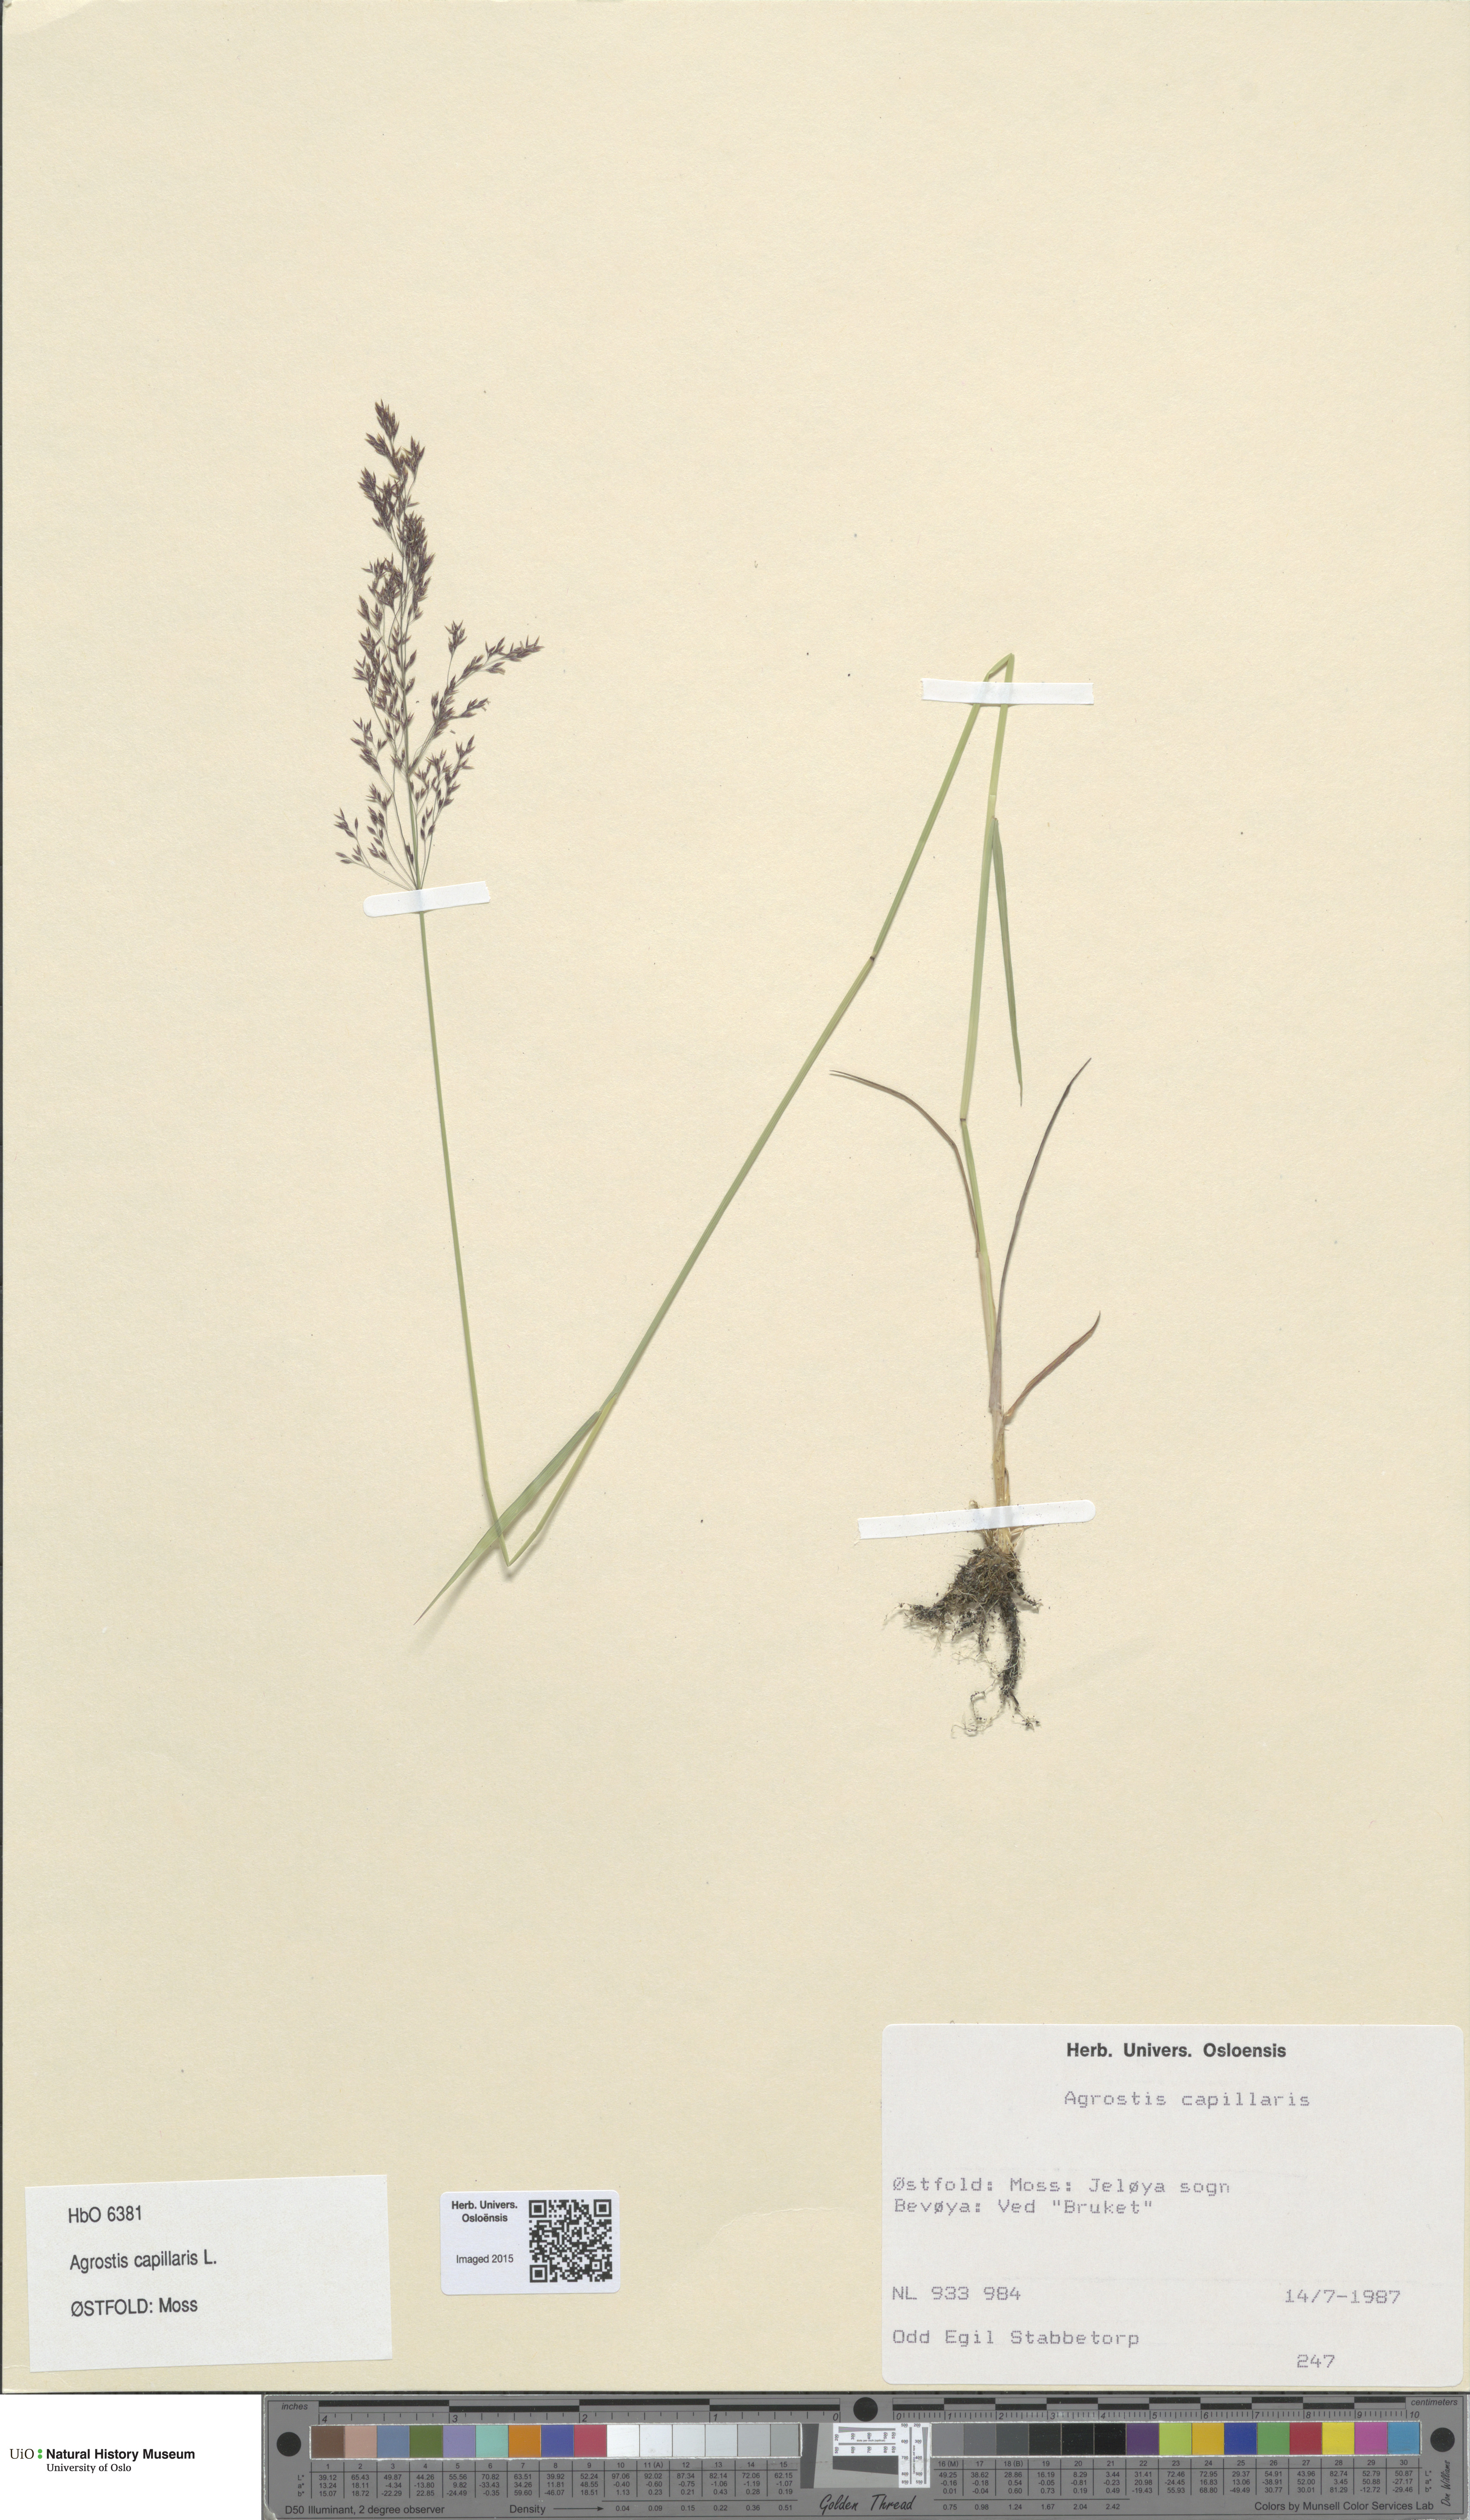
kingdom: Plantae
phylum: Tracheophyta
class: Liliopsida
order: Poales
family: Poaceae
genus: Agrostis
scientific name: Agrostis capillaris
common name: Colonial bentgrass
